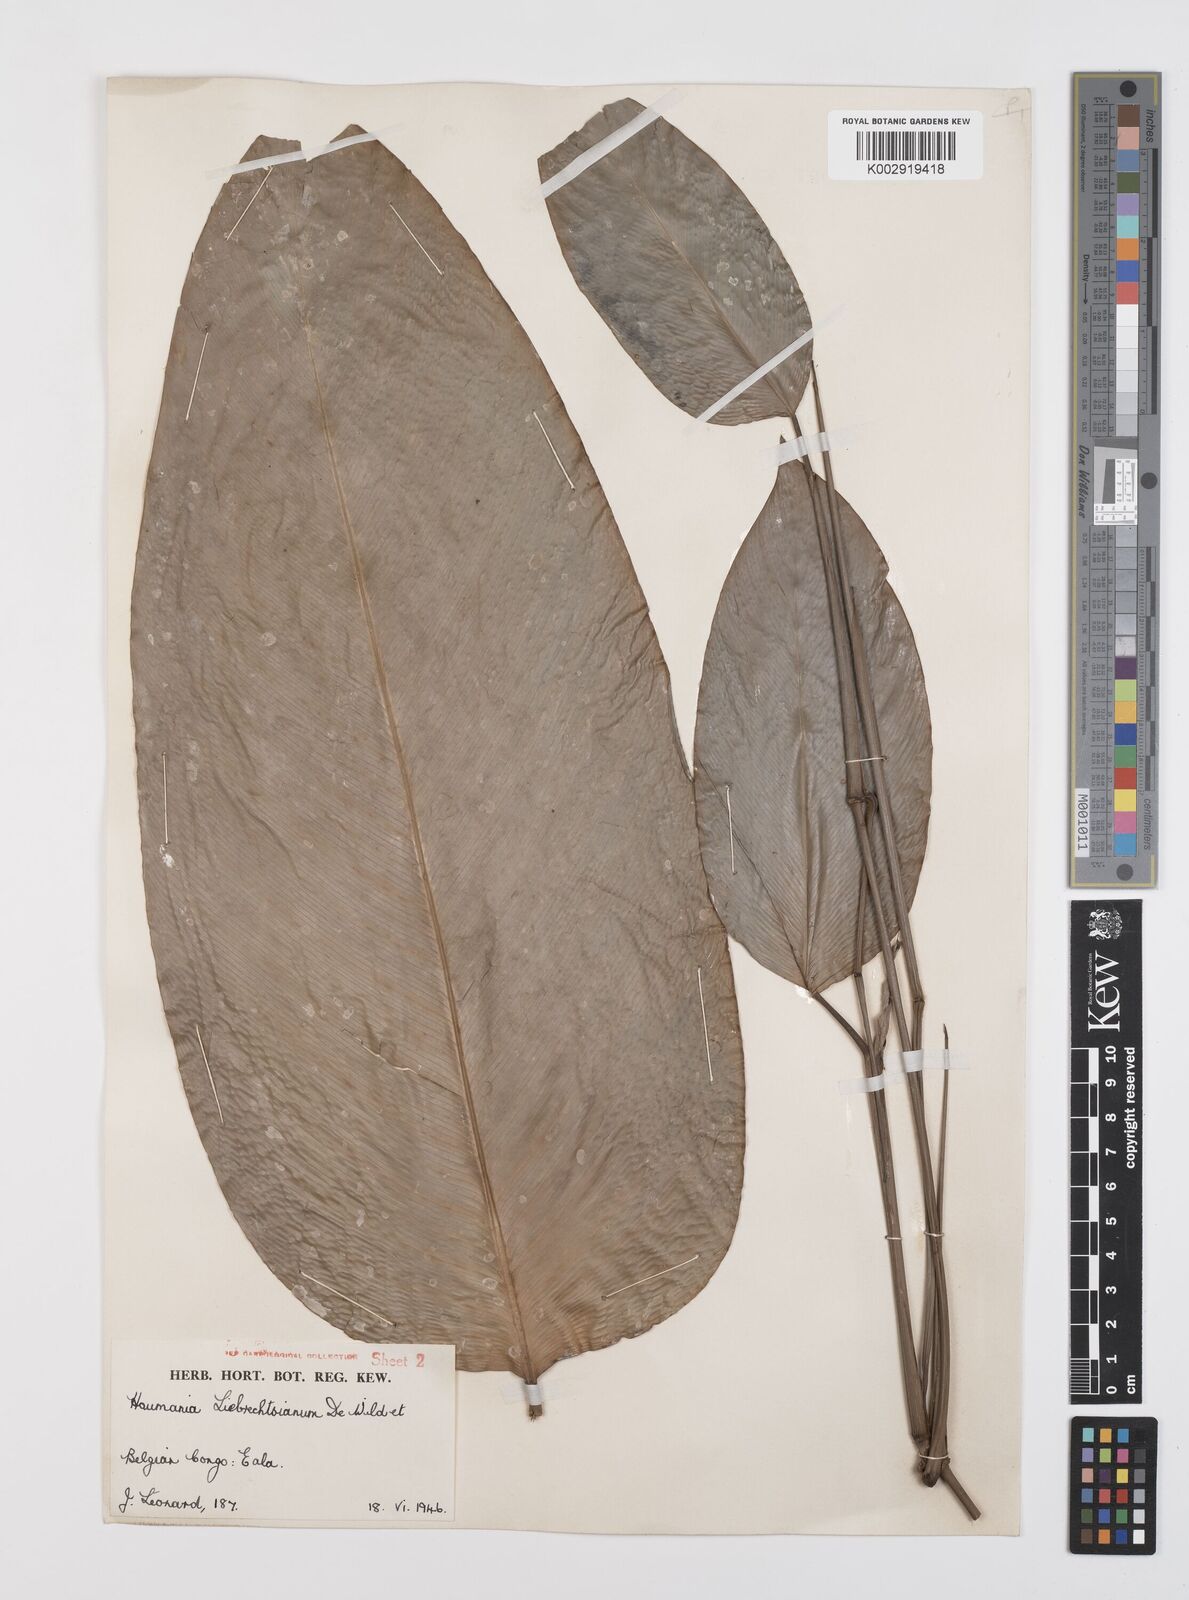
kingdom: Plantae
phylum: Tracheophyta
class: Liliopsida
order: Zingiberales
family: Marantaceae
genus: Haumania
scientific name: Haumania liebrechtsiana
